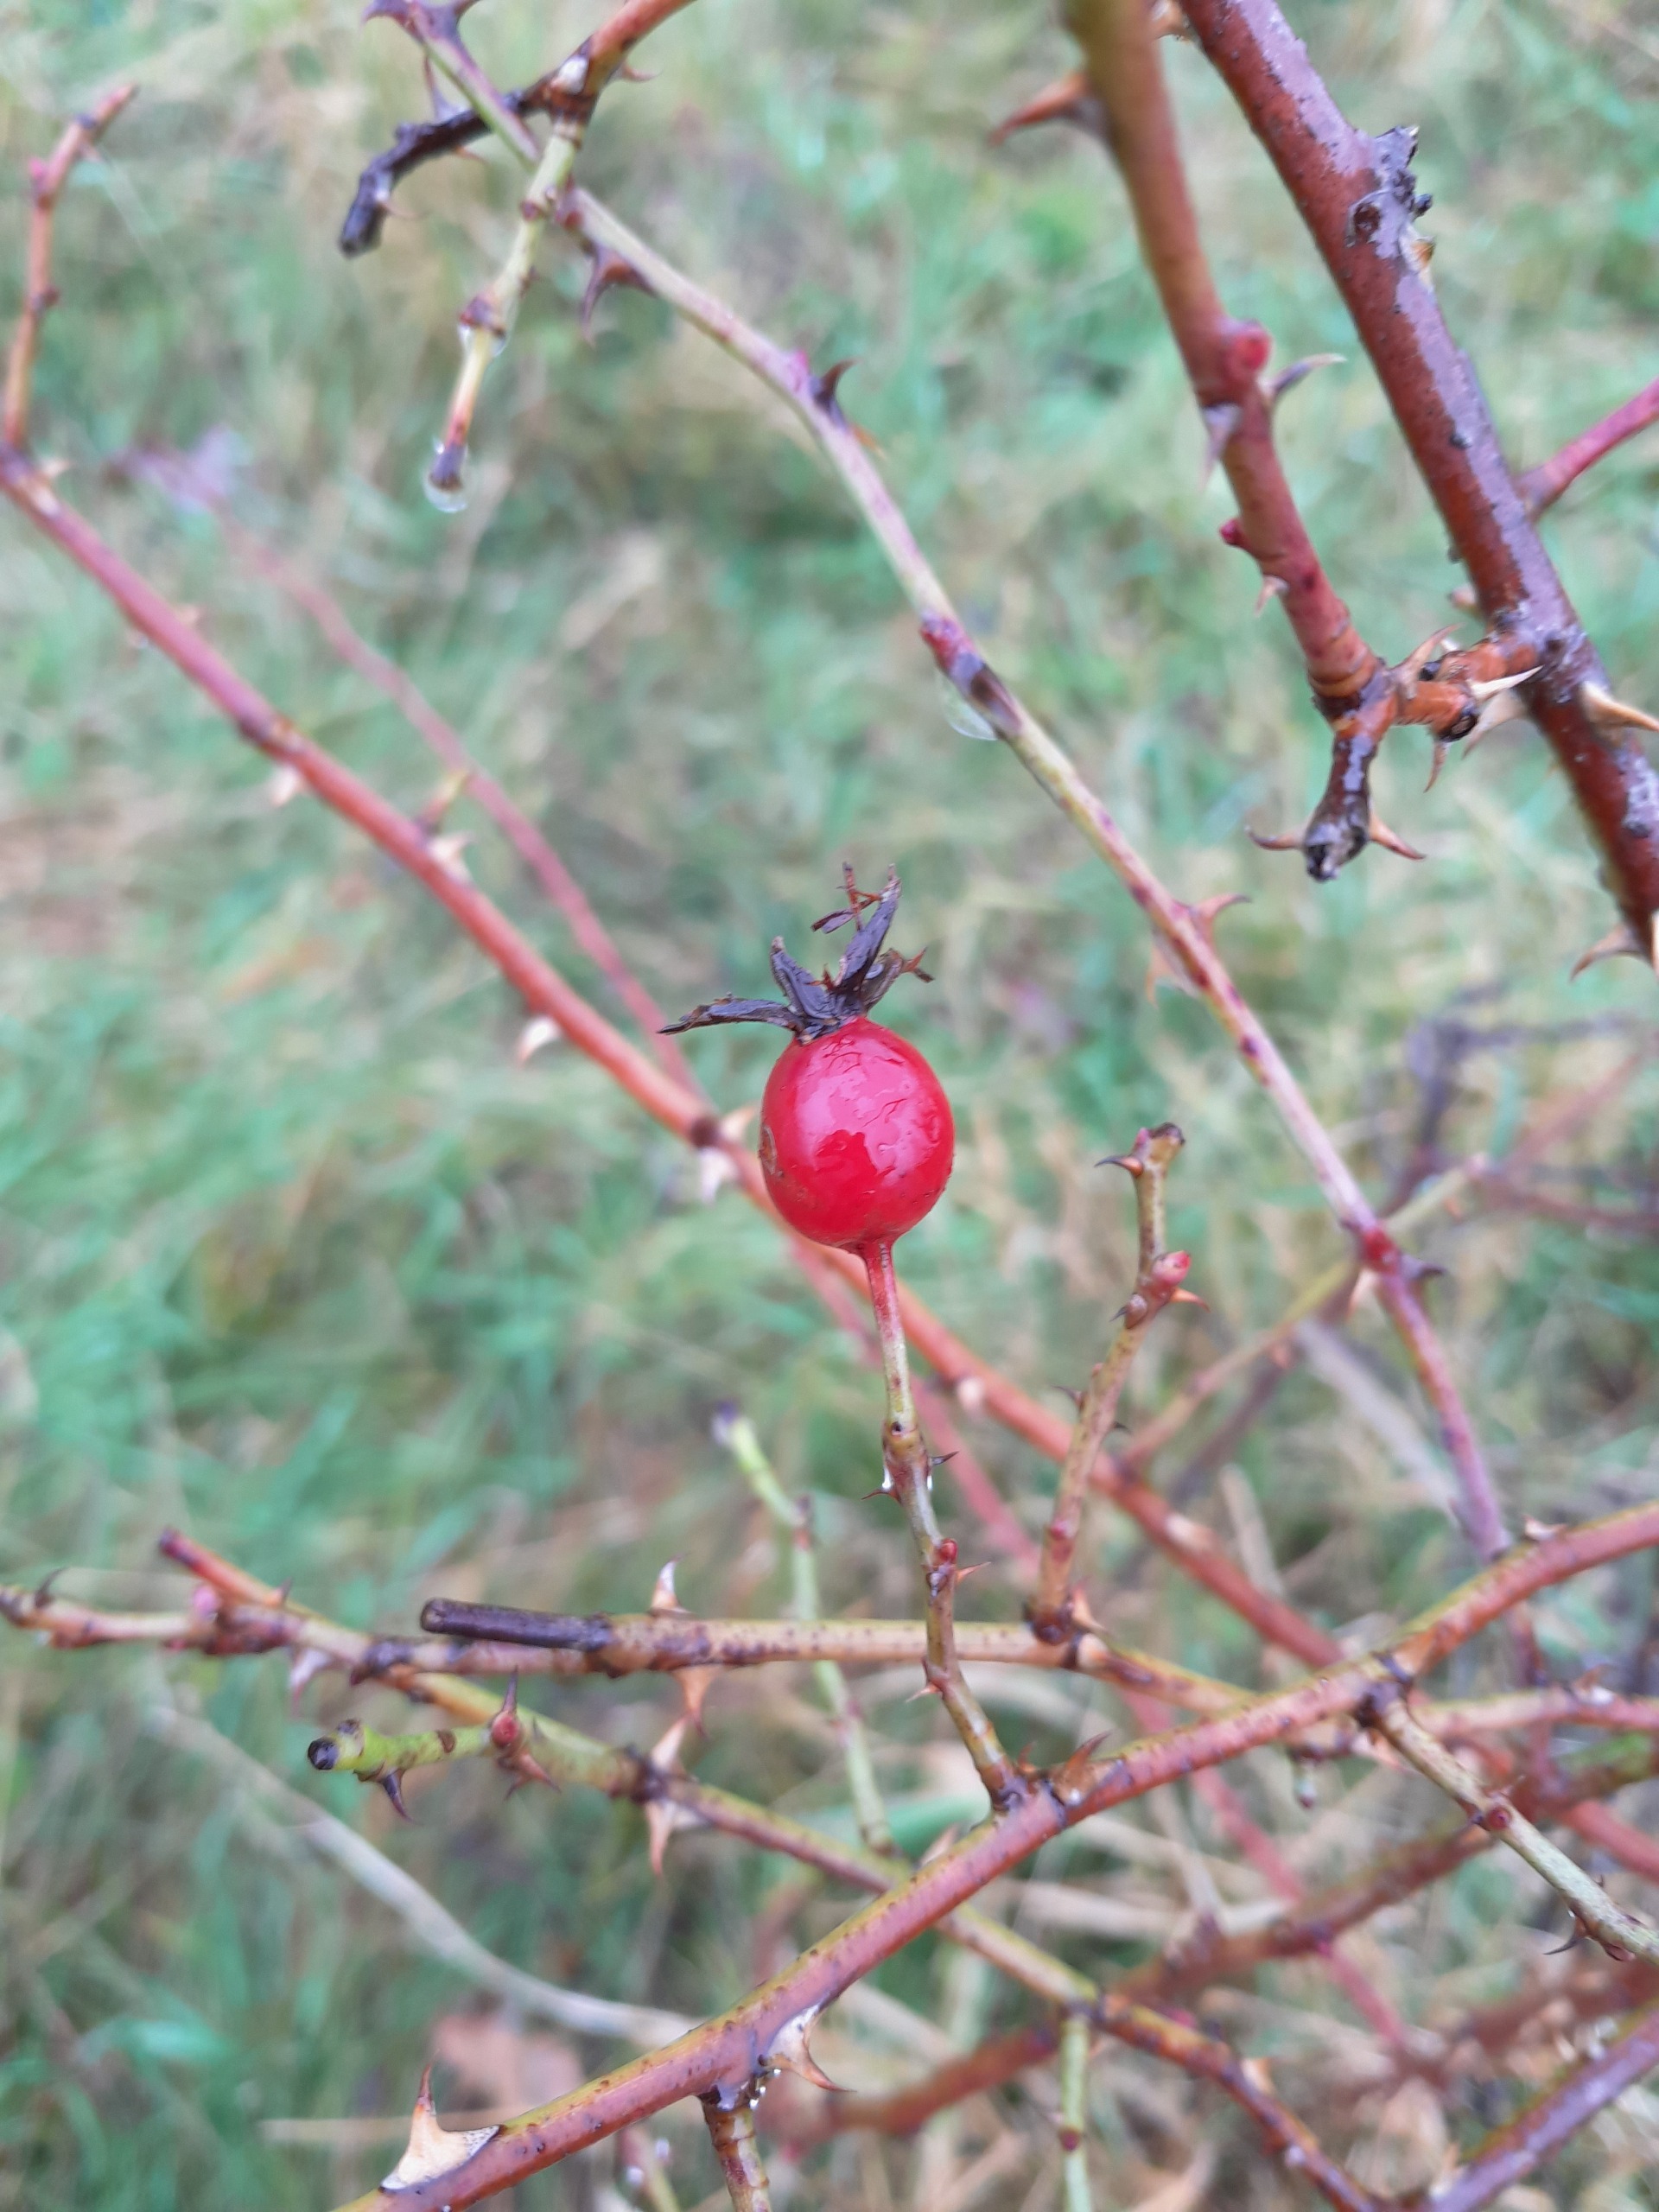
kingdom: Plantae
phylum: Tracheophyta
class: Magnoliopsida
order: Rosales
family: Rosaceae
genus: Rosa
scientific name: Rosa dumalis
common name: Blågrøn rose
